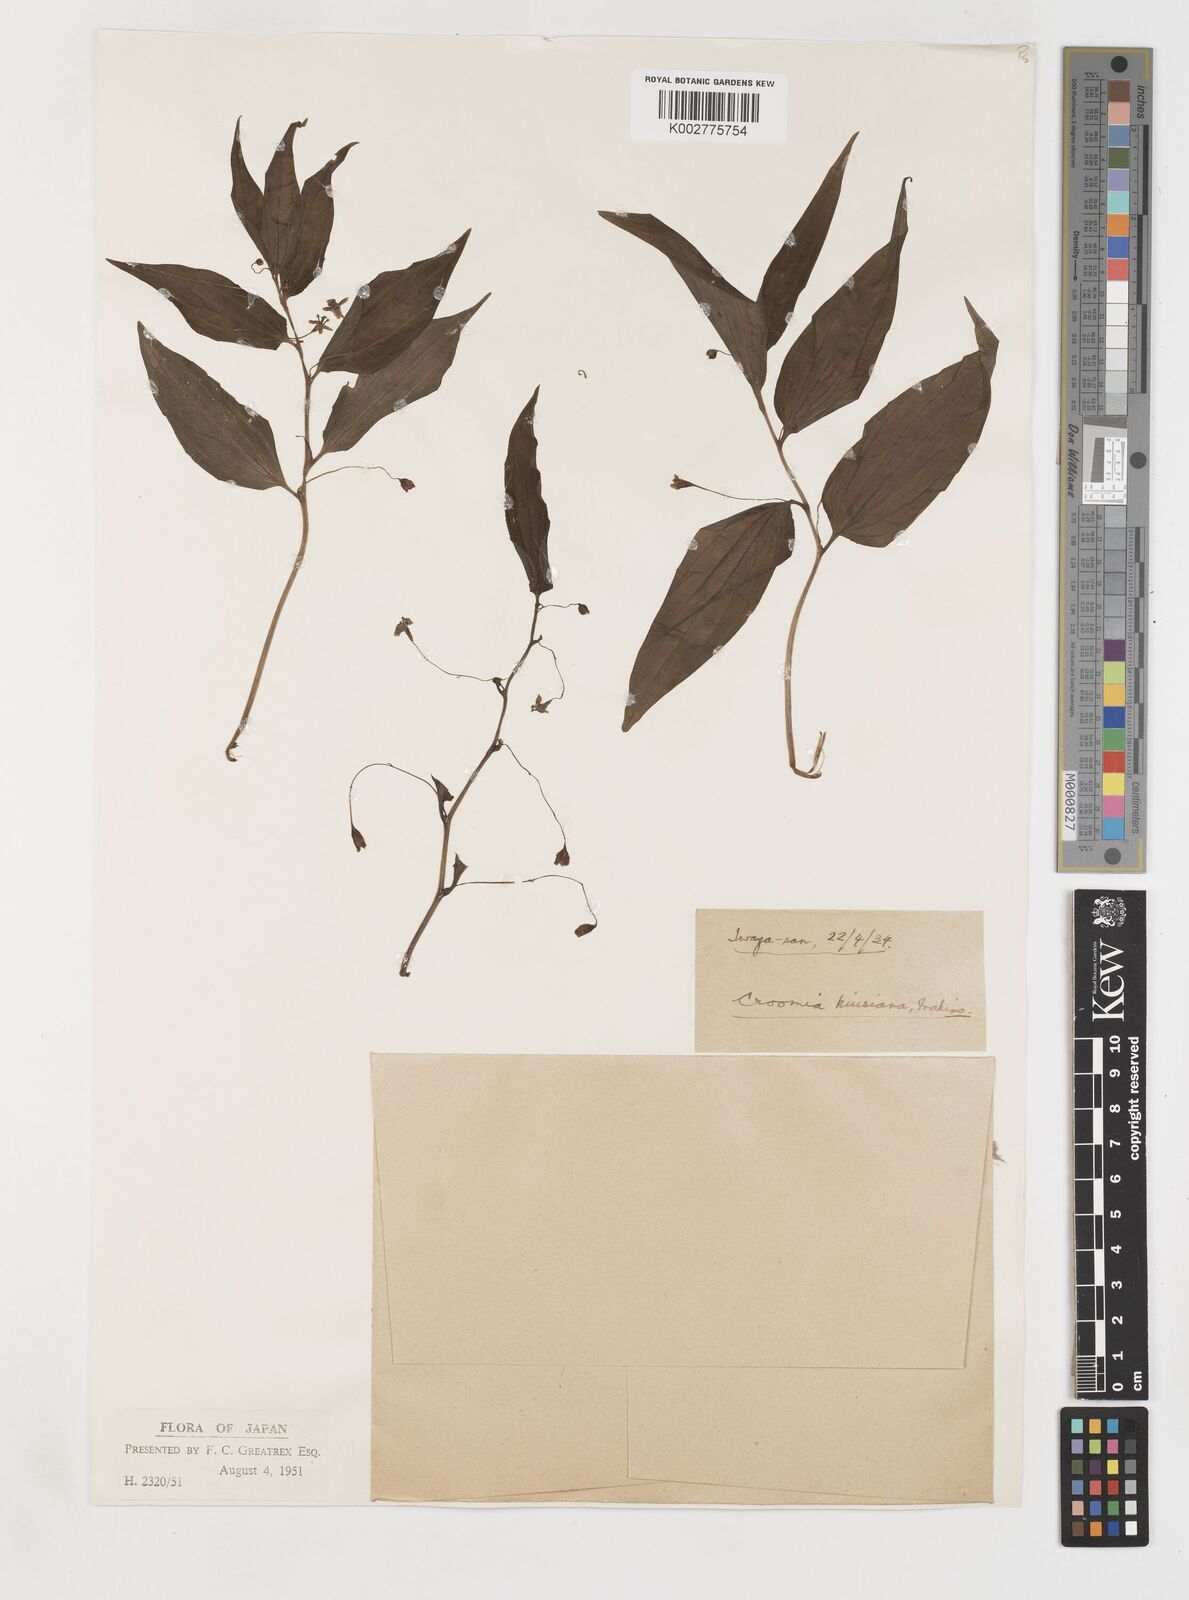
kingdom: Plantae
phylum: Tracheophyta
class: Liliopsida
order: Pandanales
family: Stemonaceae
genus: Croomia
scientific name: Croomia japonica
